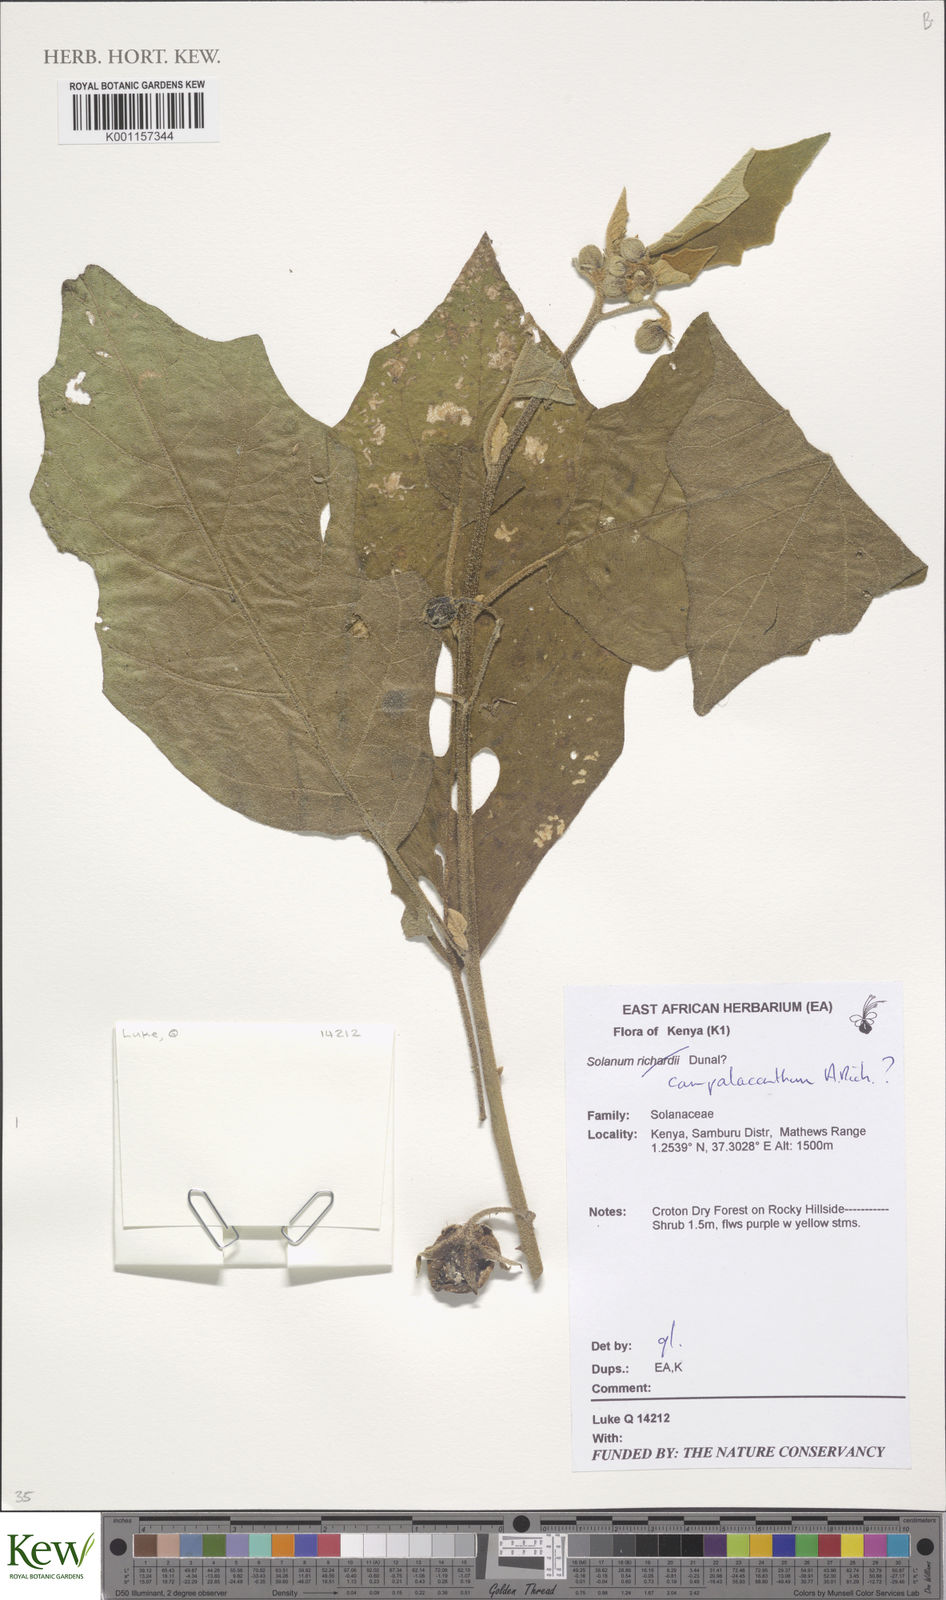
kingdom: Plantae
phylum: Tracheophyta
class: Magnoliopsida
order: Solanales
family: Solanaceae
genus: Solanum
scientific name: Solanum campylacanthum
